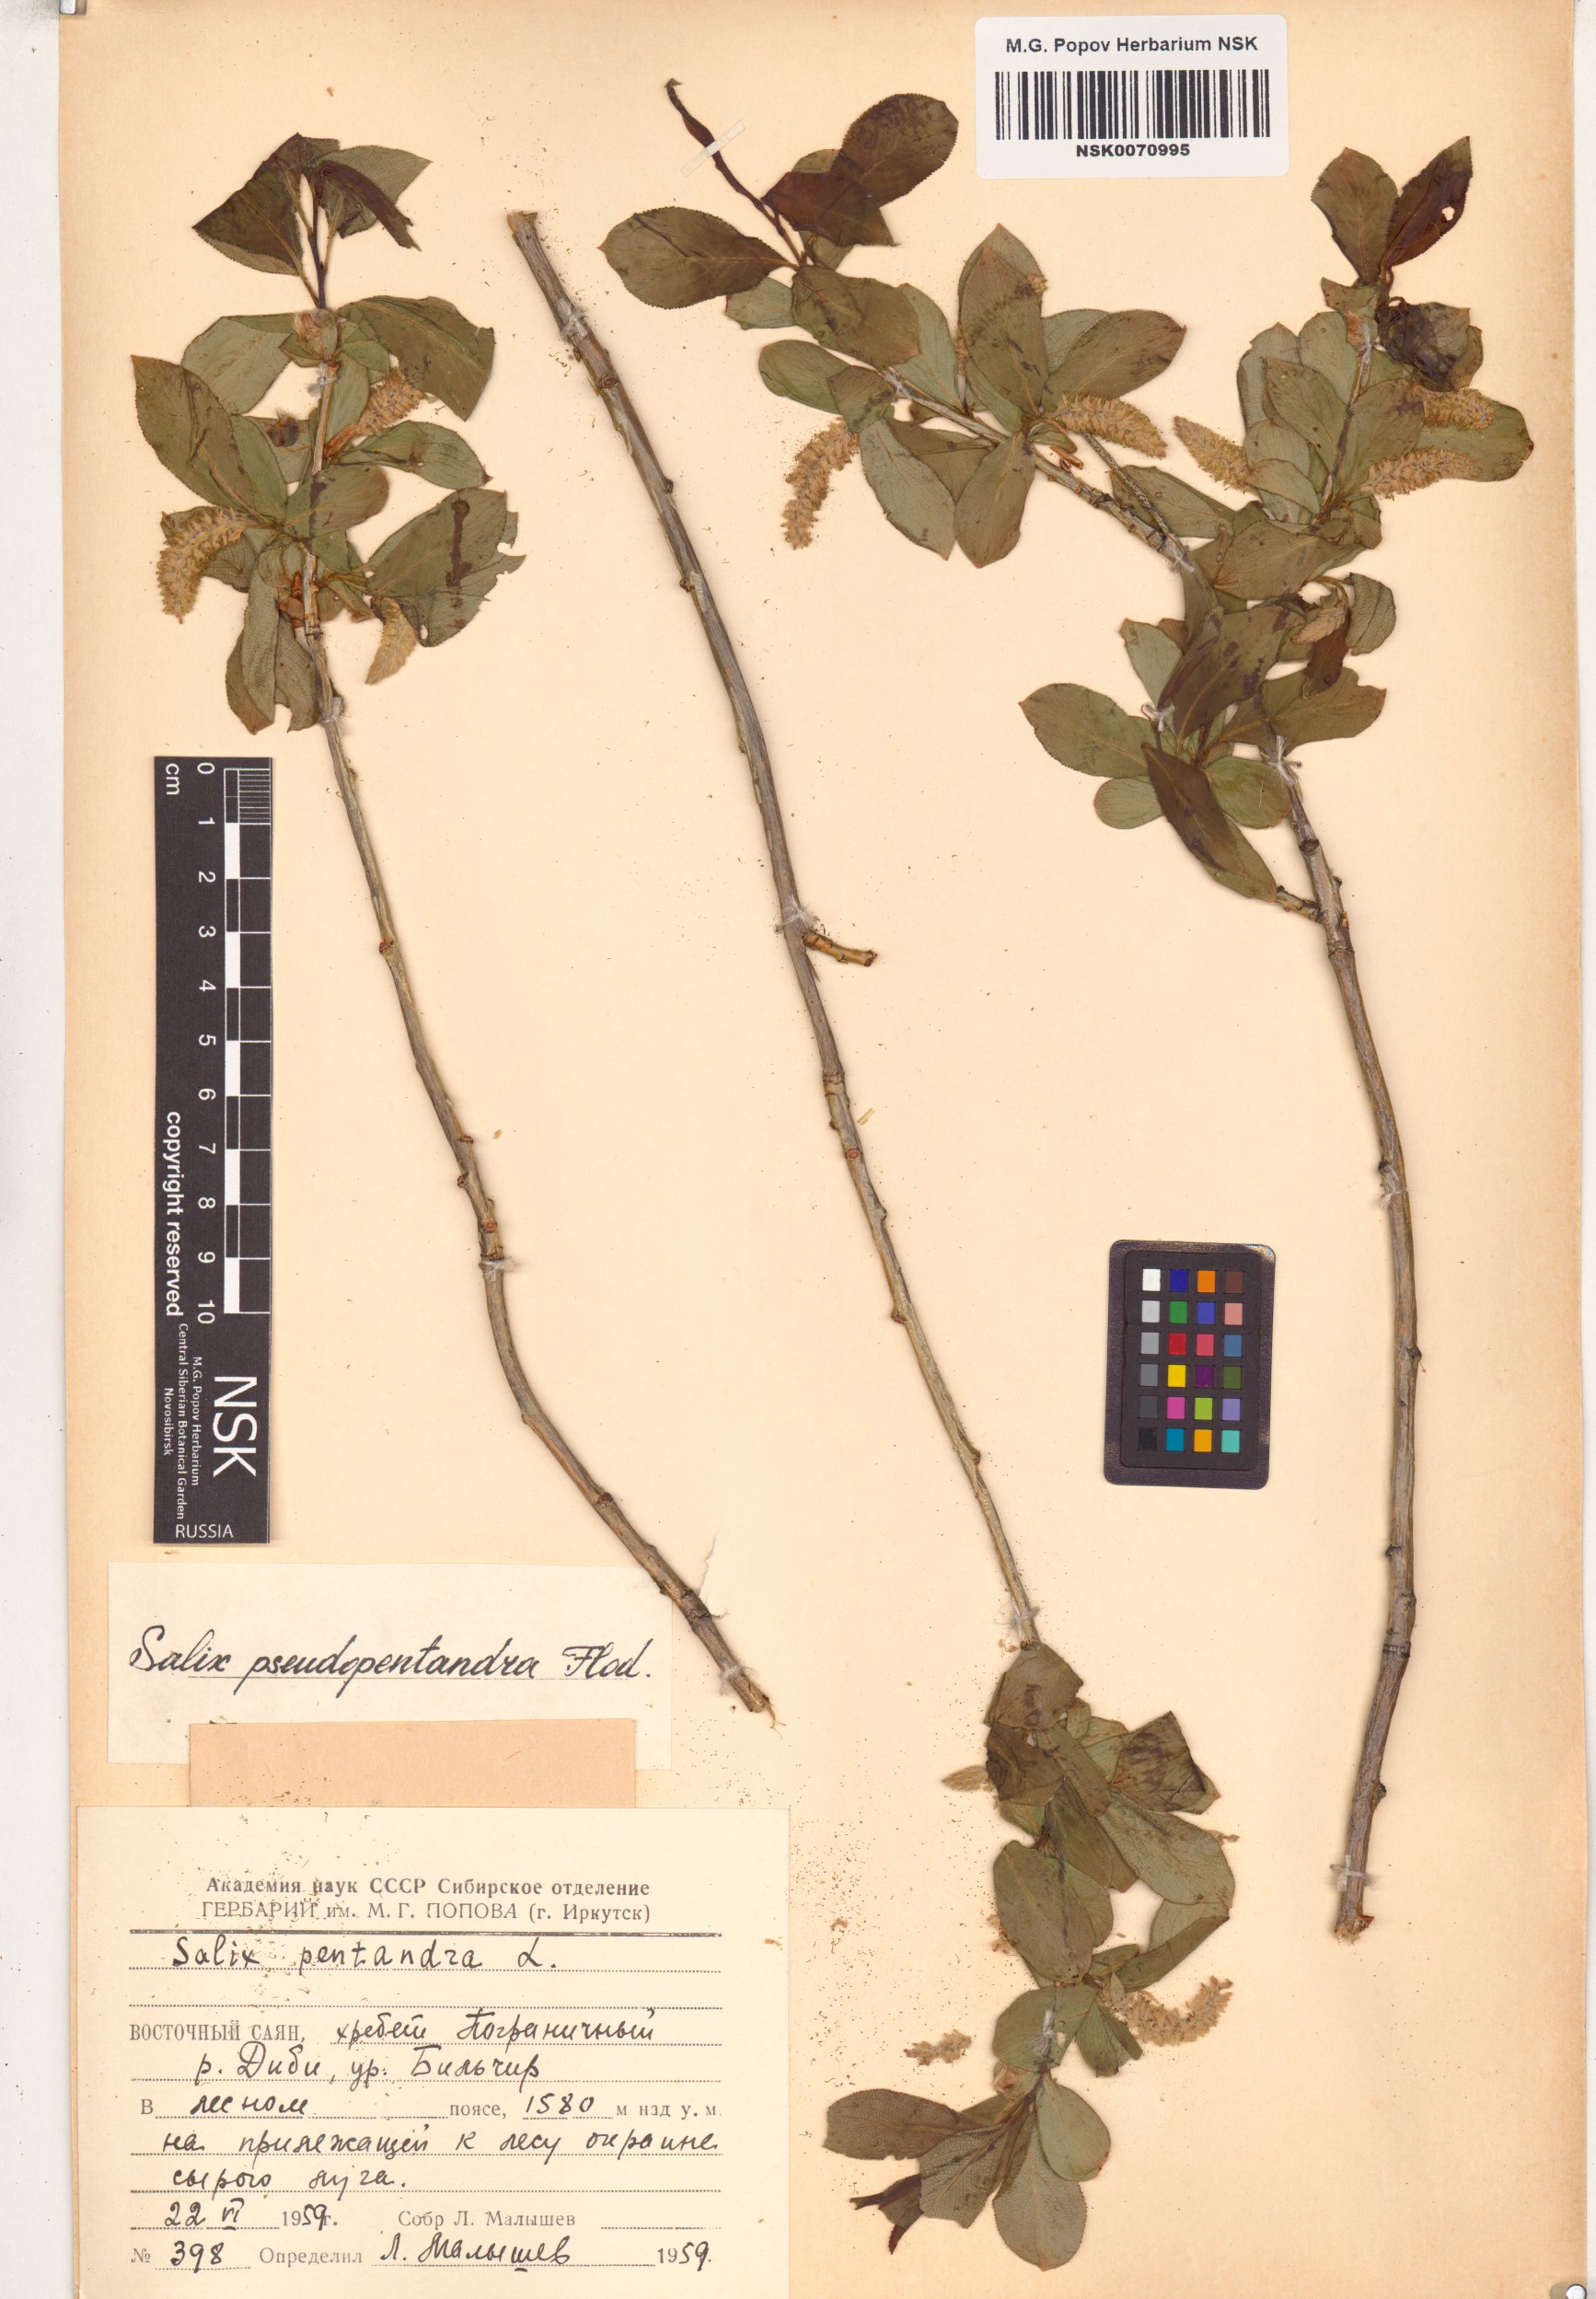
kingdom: Plantae
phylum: Tracheophyta
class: Magnoliopsida
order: Malpighiales
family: Salicaceae
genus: Salix
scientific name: Salix pseudopentandra
